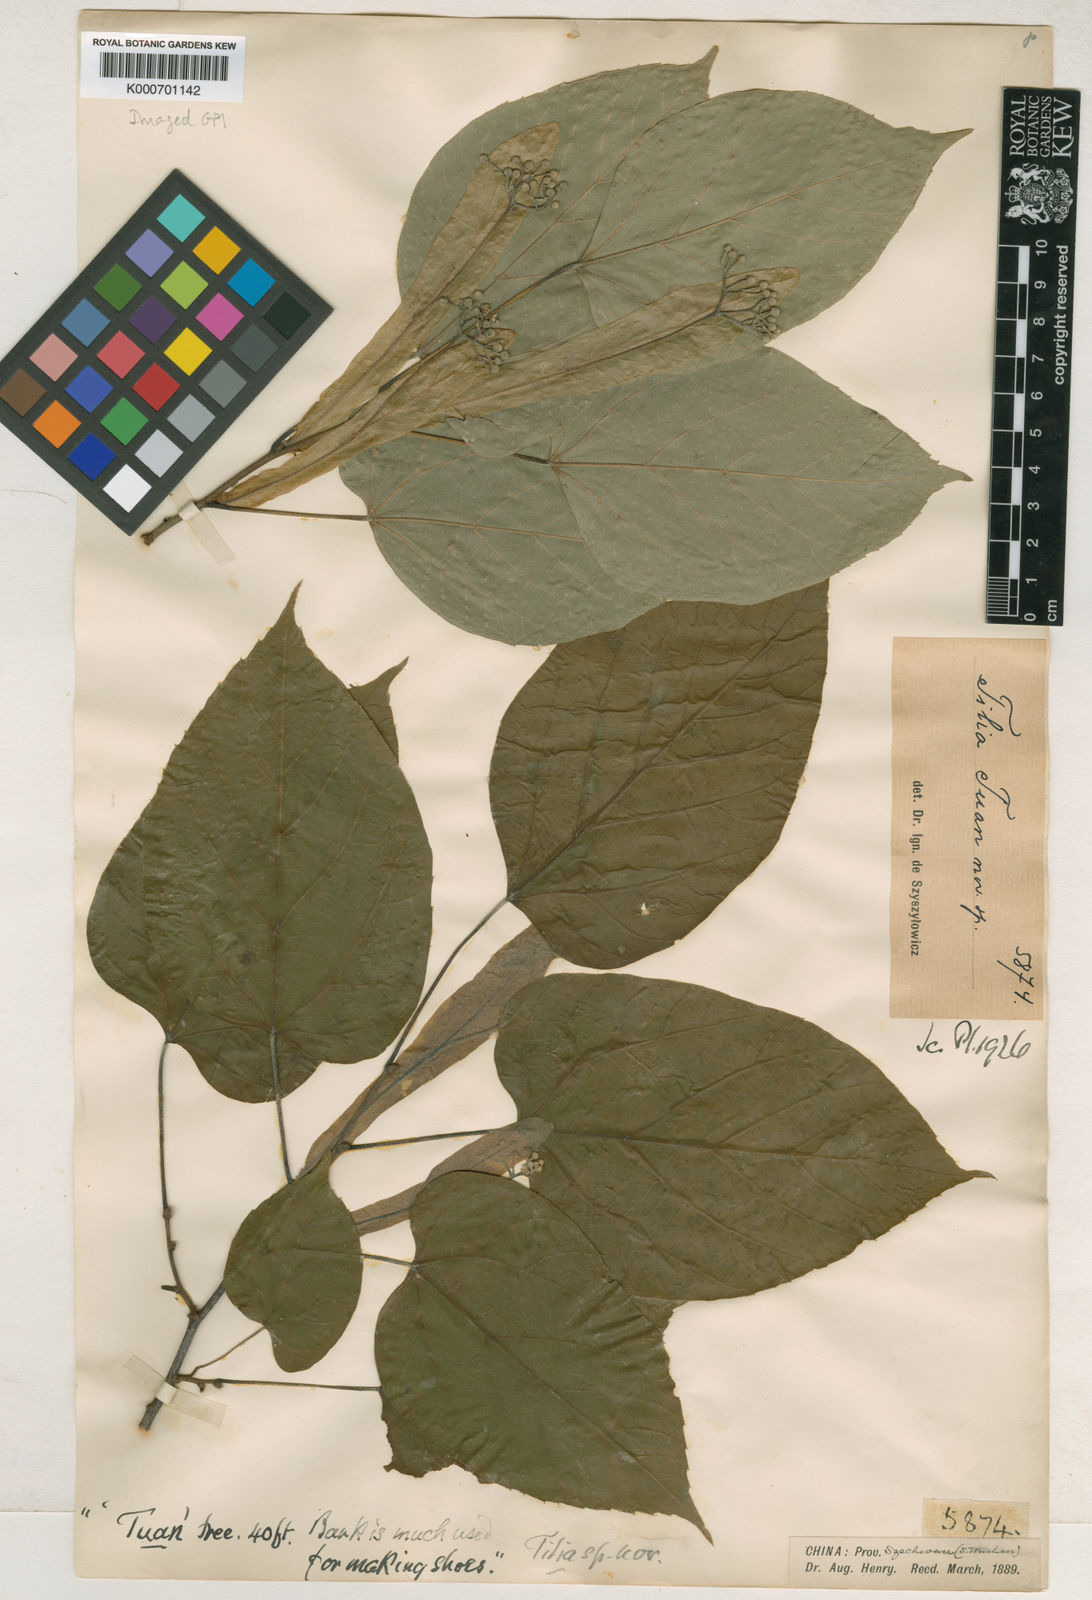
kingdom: Plantae
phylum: Tracheophyta
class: Magnoliopsida
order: Malvales
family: Malvaceae
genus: Tilia
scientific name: Tilia tuan
